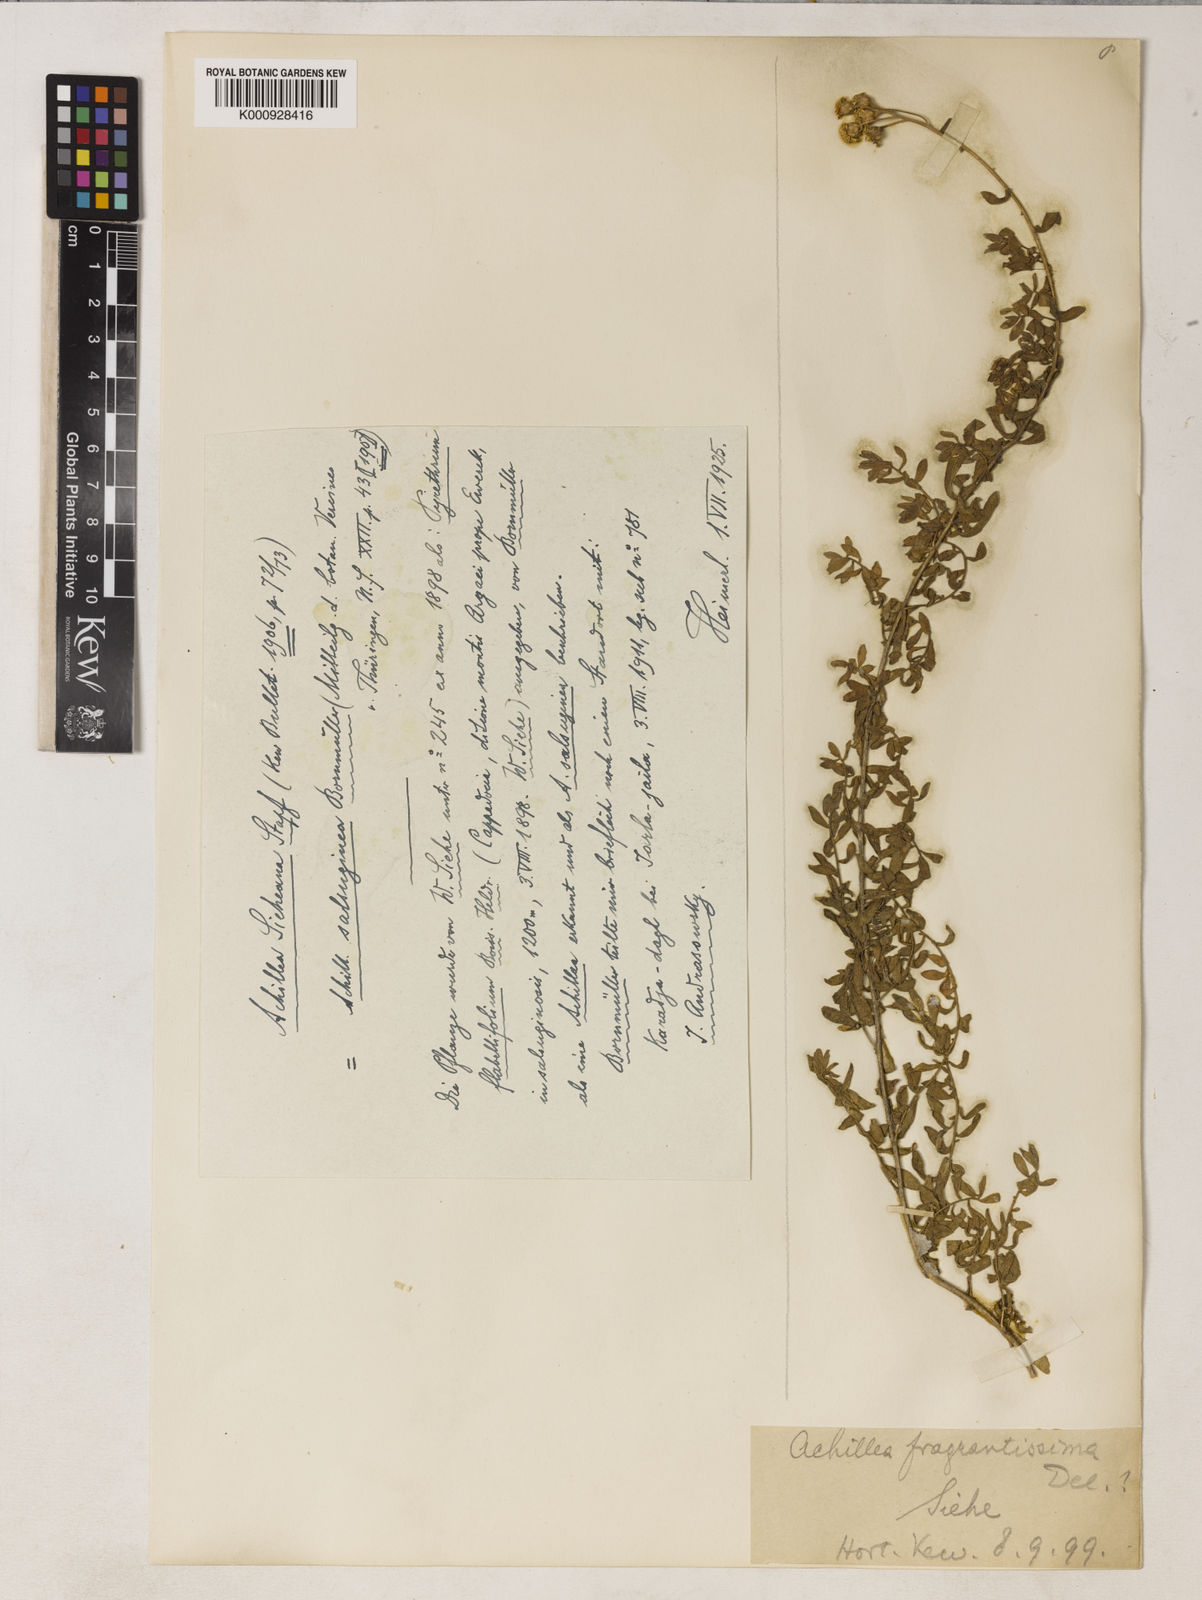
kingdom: Plantae
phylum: Tracheophyta
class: Magnoliopsida
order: Asterales
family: Asteraceae
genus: Achillea
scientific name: Achillea sieheana
